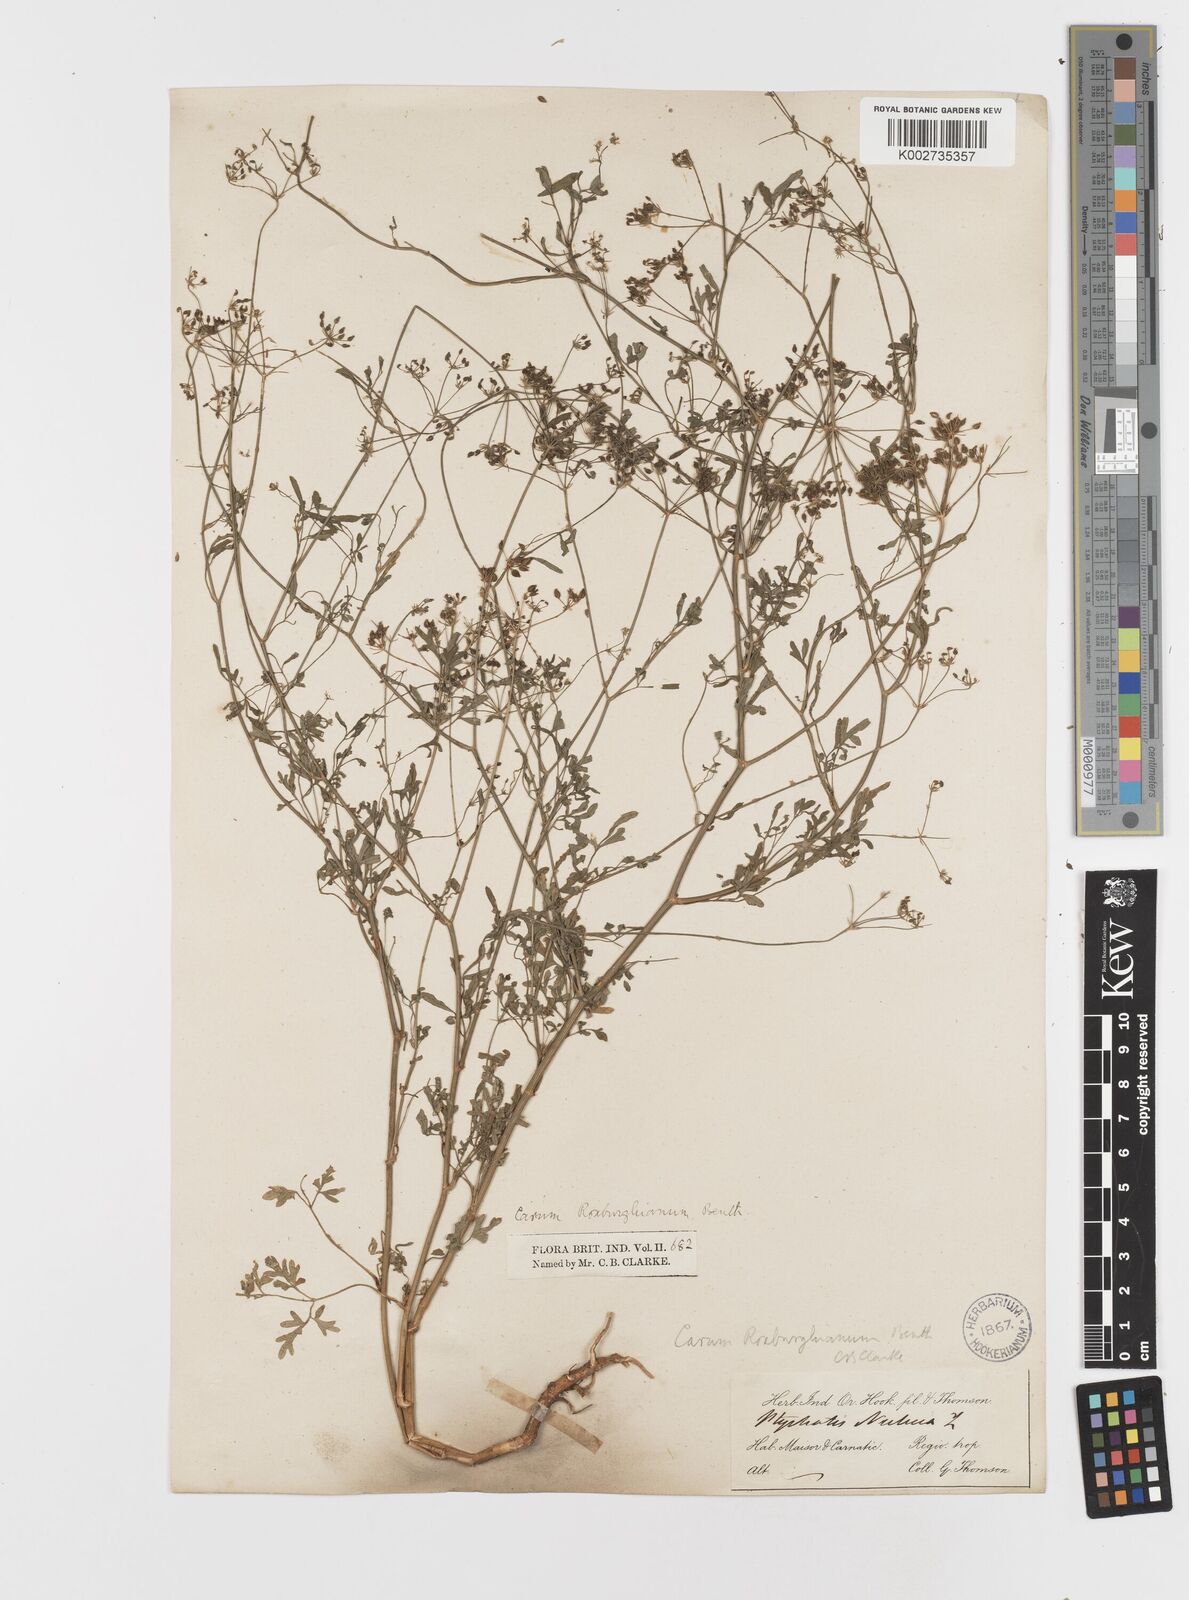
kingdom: Plantae
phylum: Tracheophyta
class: Magnoliopsida
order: Apiales
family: Apiaceae
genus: Psammogeton
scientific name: Psammogeton involucratum
